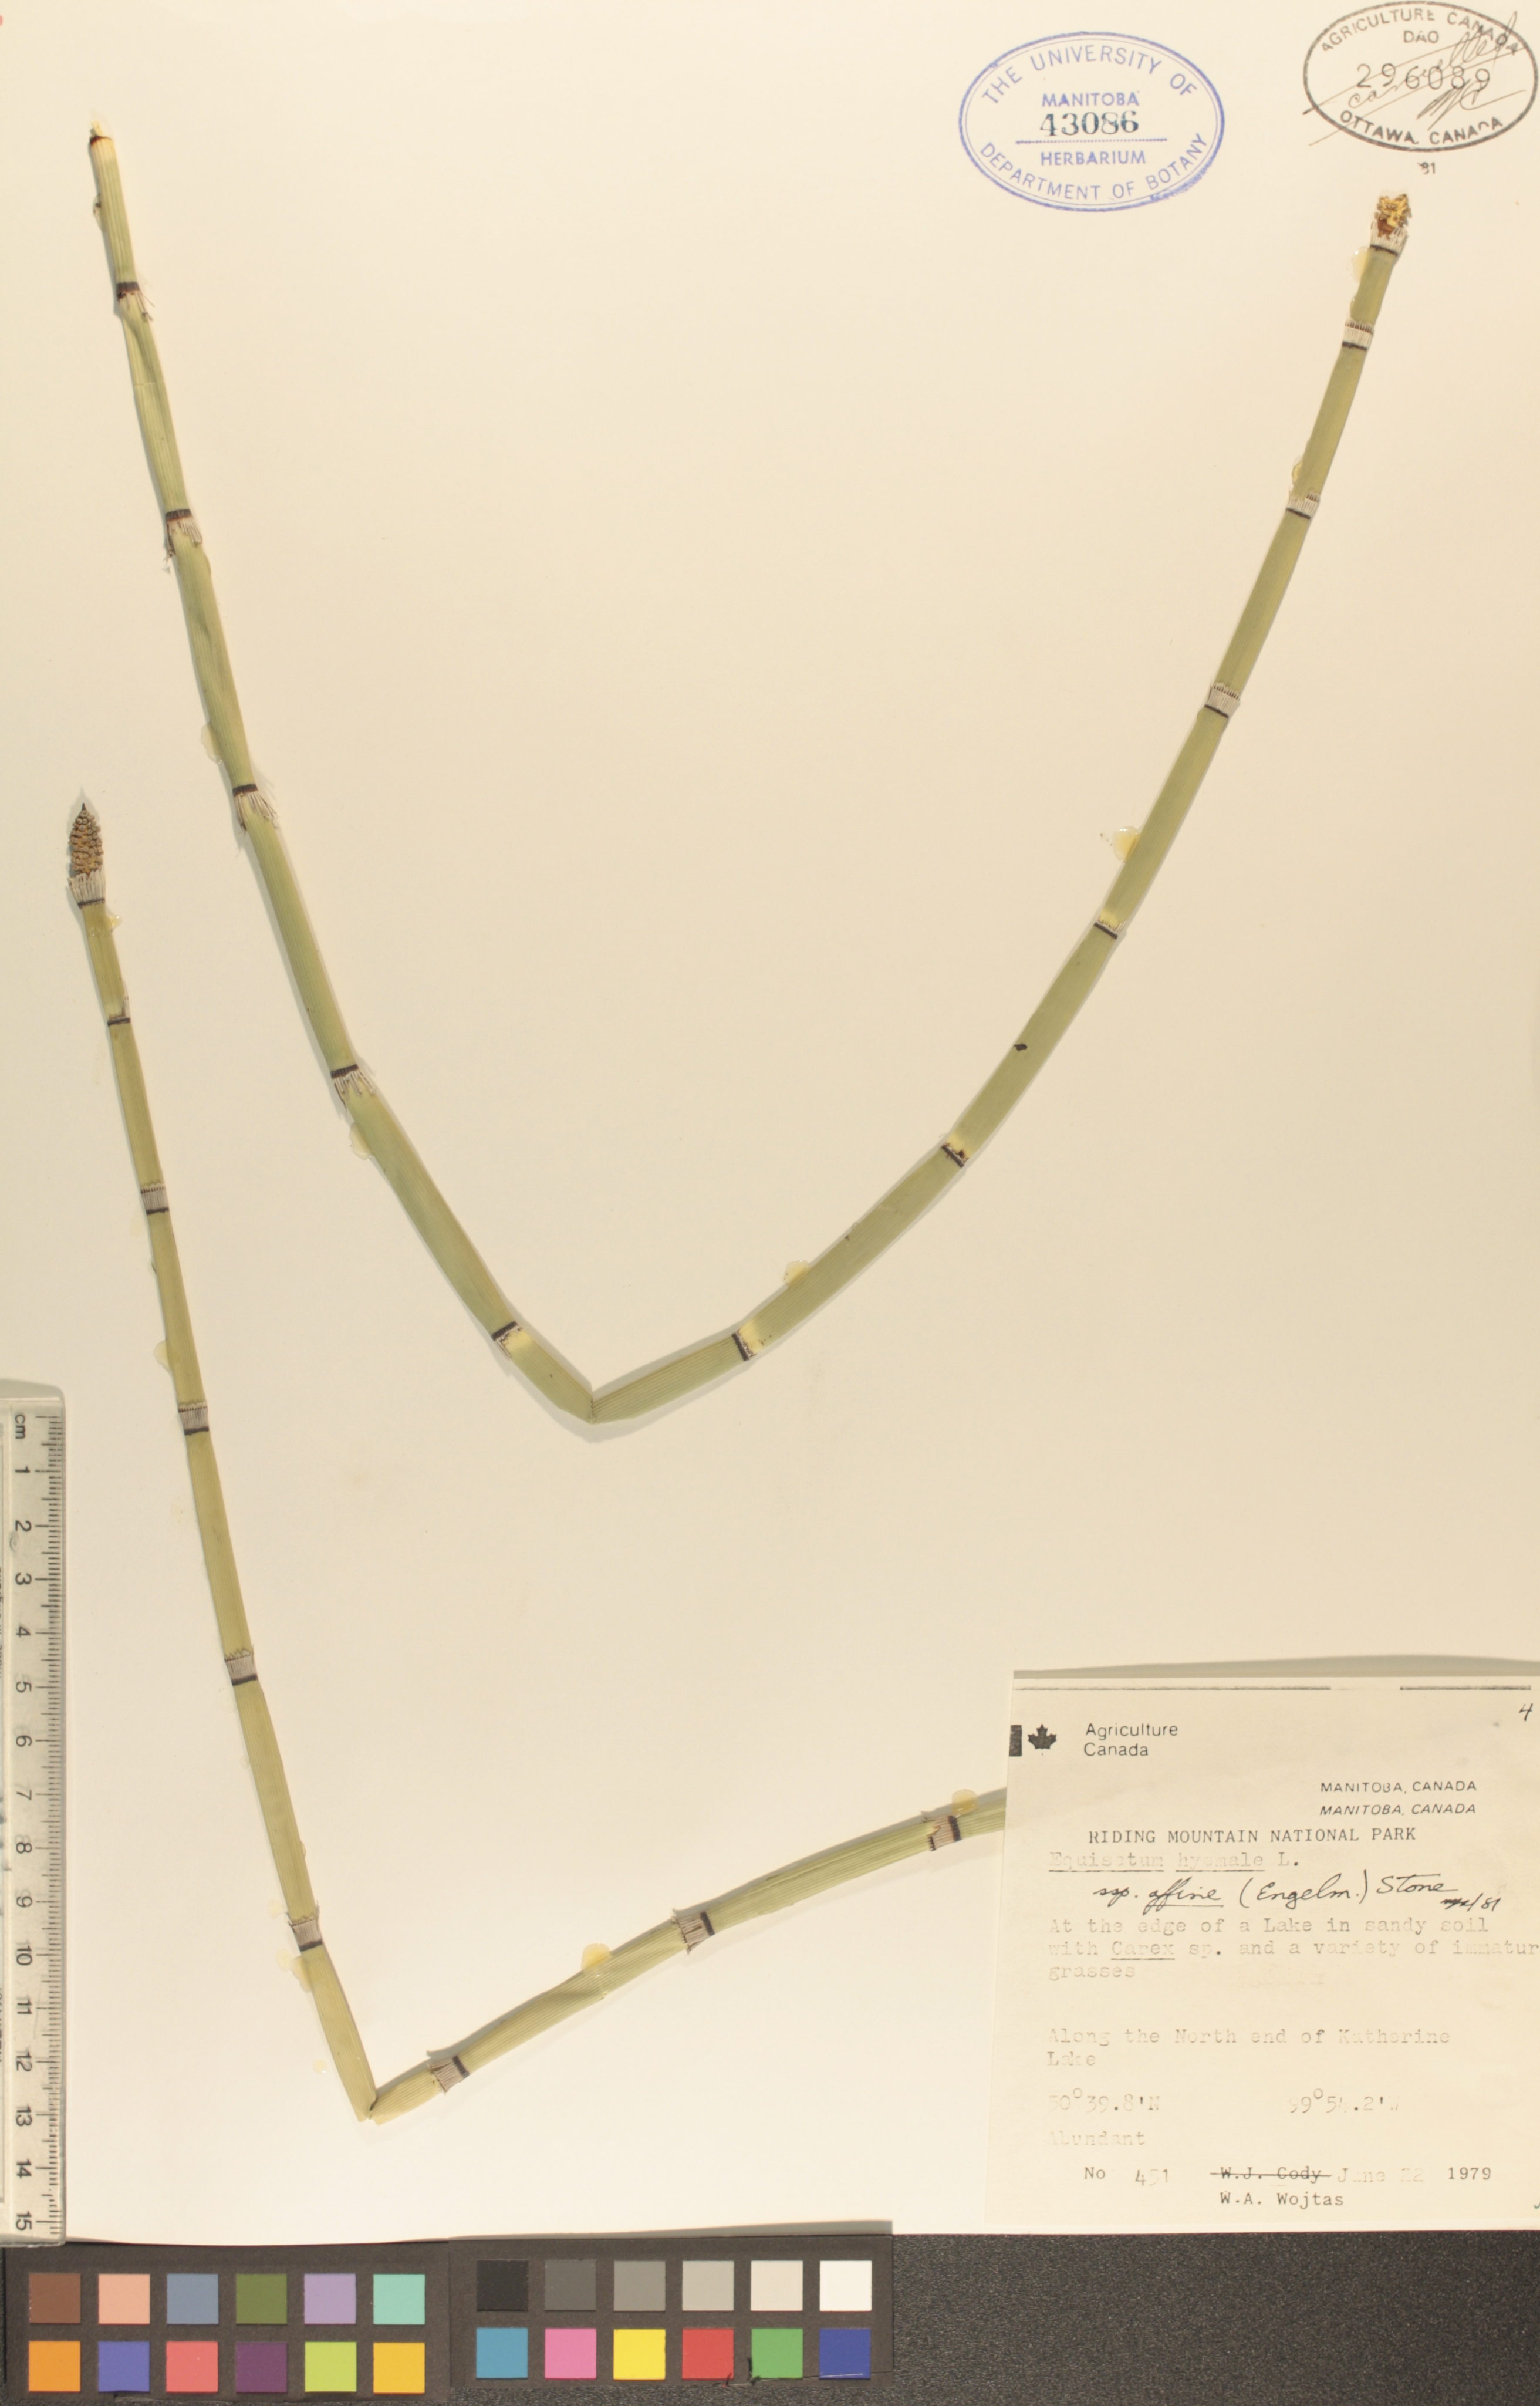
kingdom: Plantae
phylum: Tracheophyta
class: Polypodiopsida
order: Equisetales
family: Equisetaceae
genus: Equisetum
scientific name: Equisetum hyemale
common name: Rough horsetail
